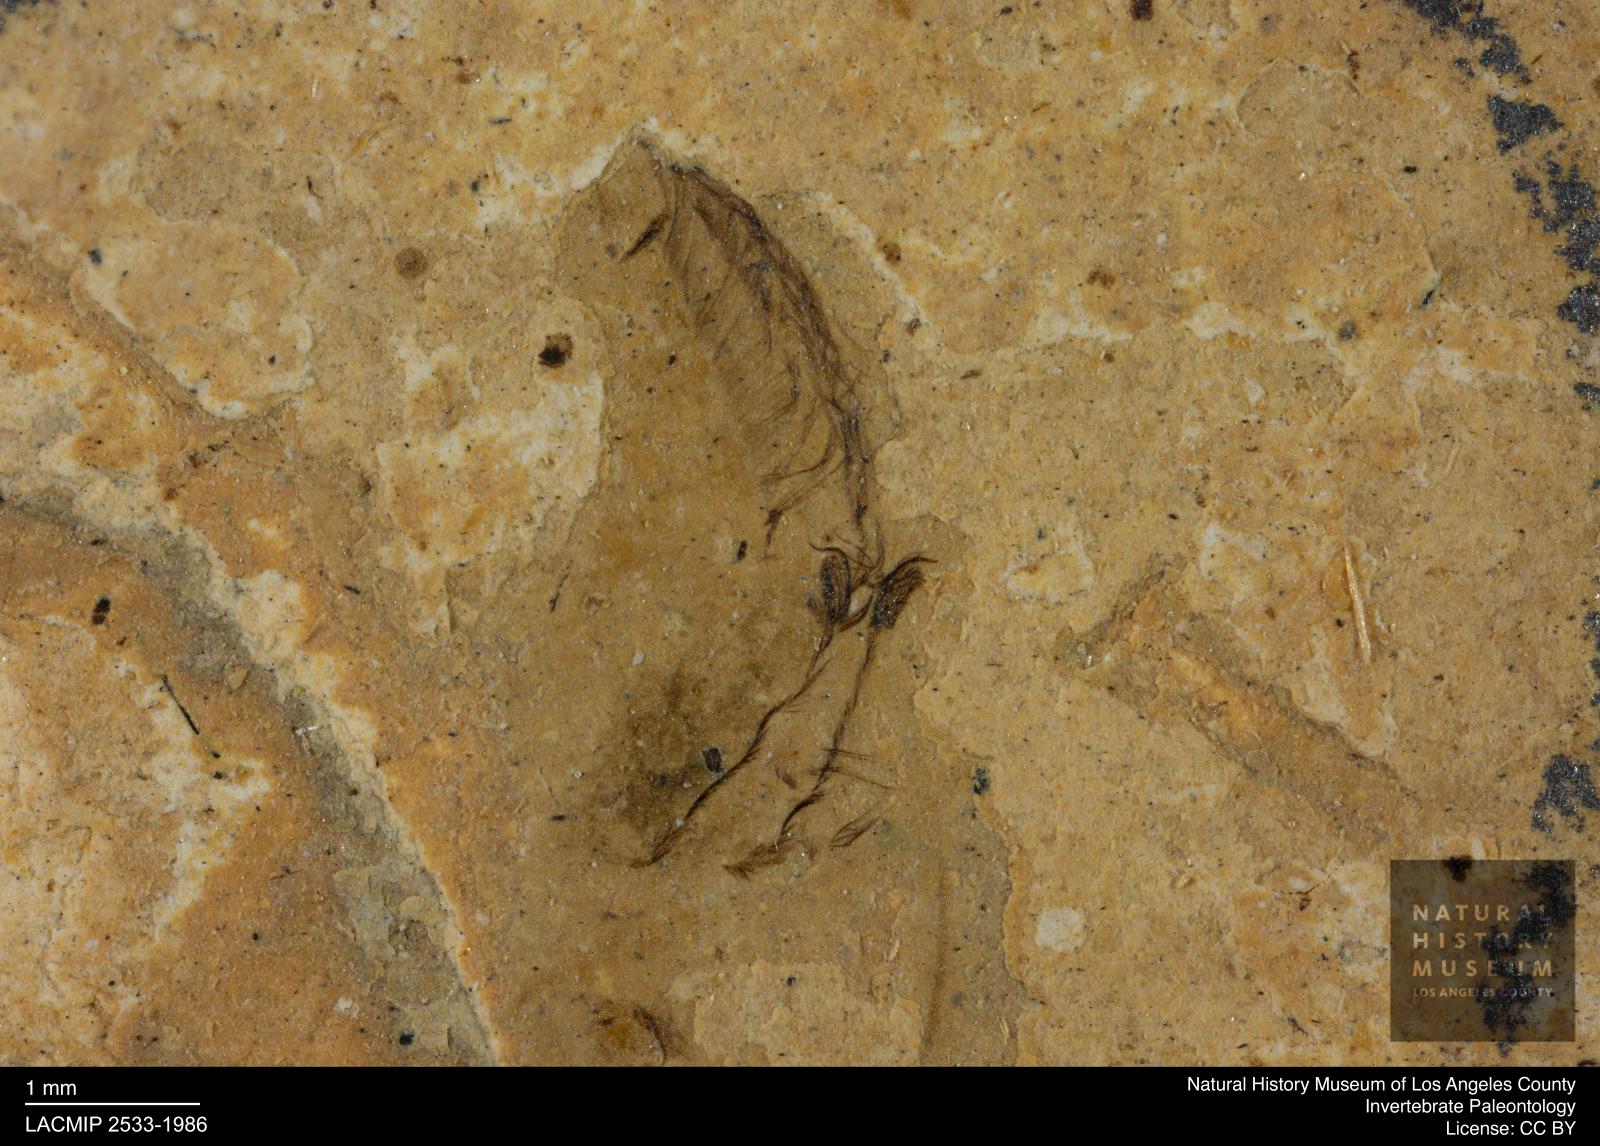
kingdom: Animalia
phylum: Arthropoda
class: Insecta
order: Hemiptera
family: Notonectidae
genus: Anisops
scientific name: Anisops Notonecta deichmuelleri
